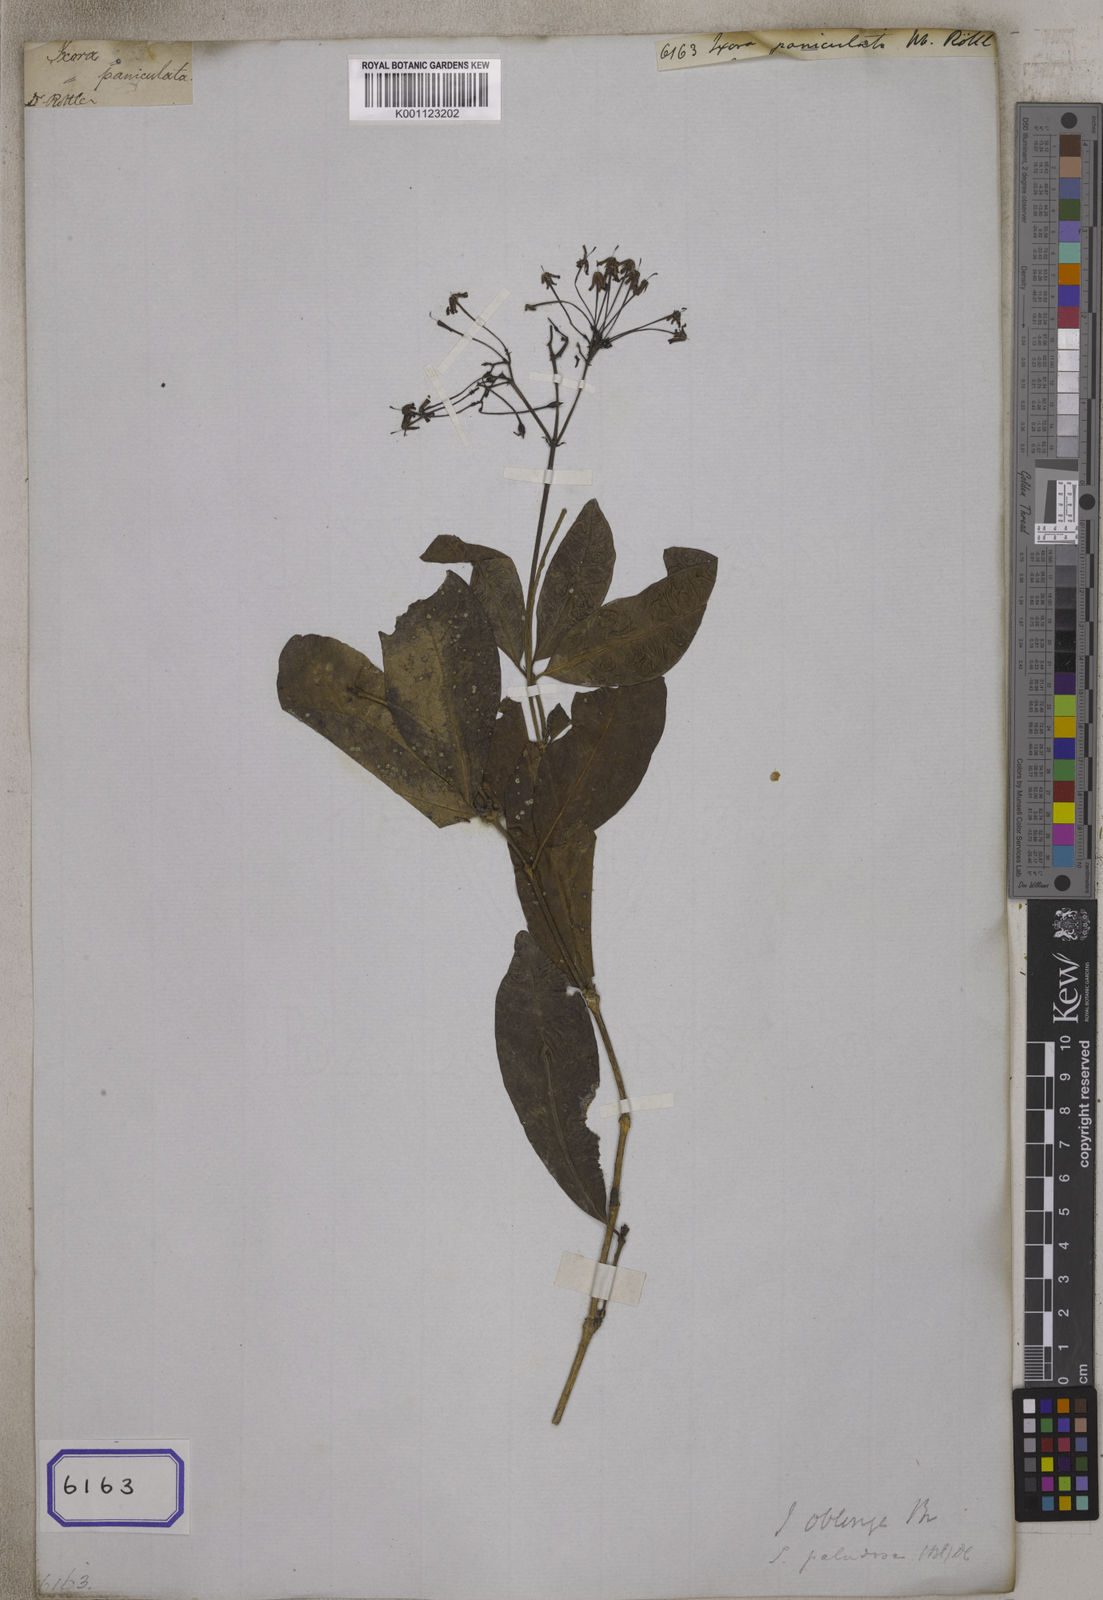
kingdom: Plantae
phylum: Tracheophyta
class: Magnoliopsida
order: Gentianales
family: Rubiaceae
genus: Ixora
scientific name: Ixora
